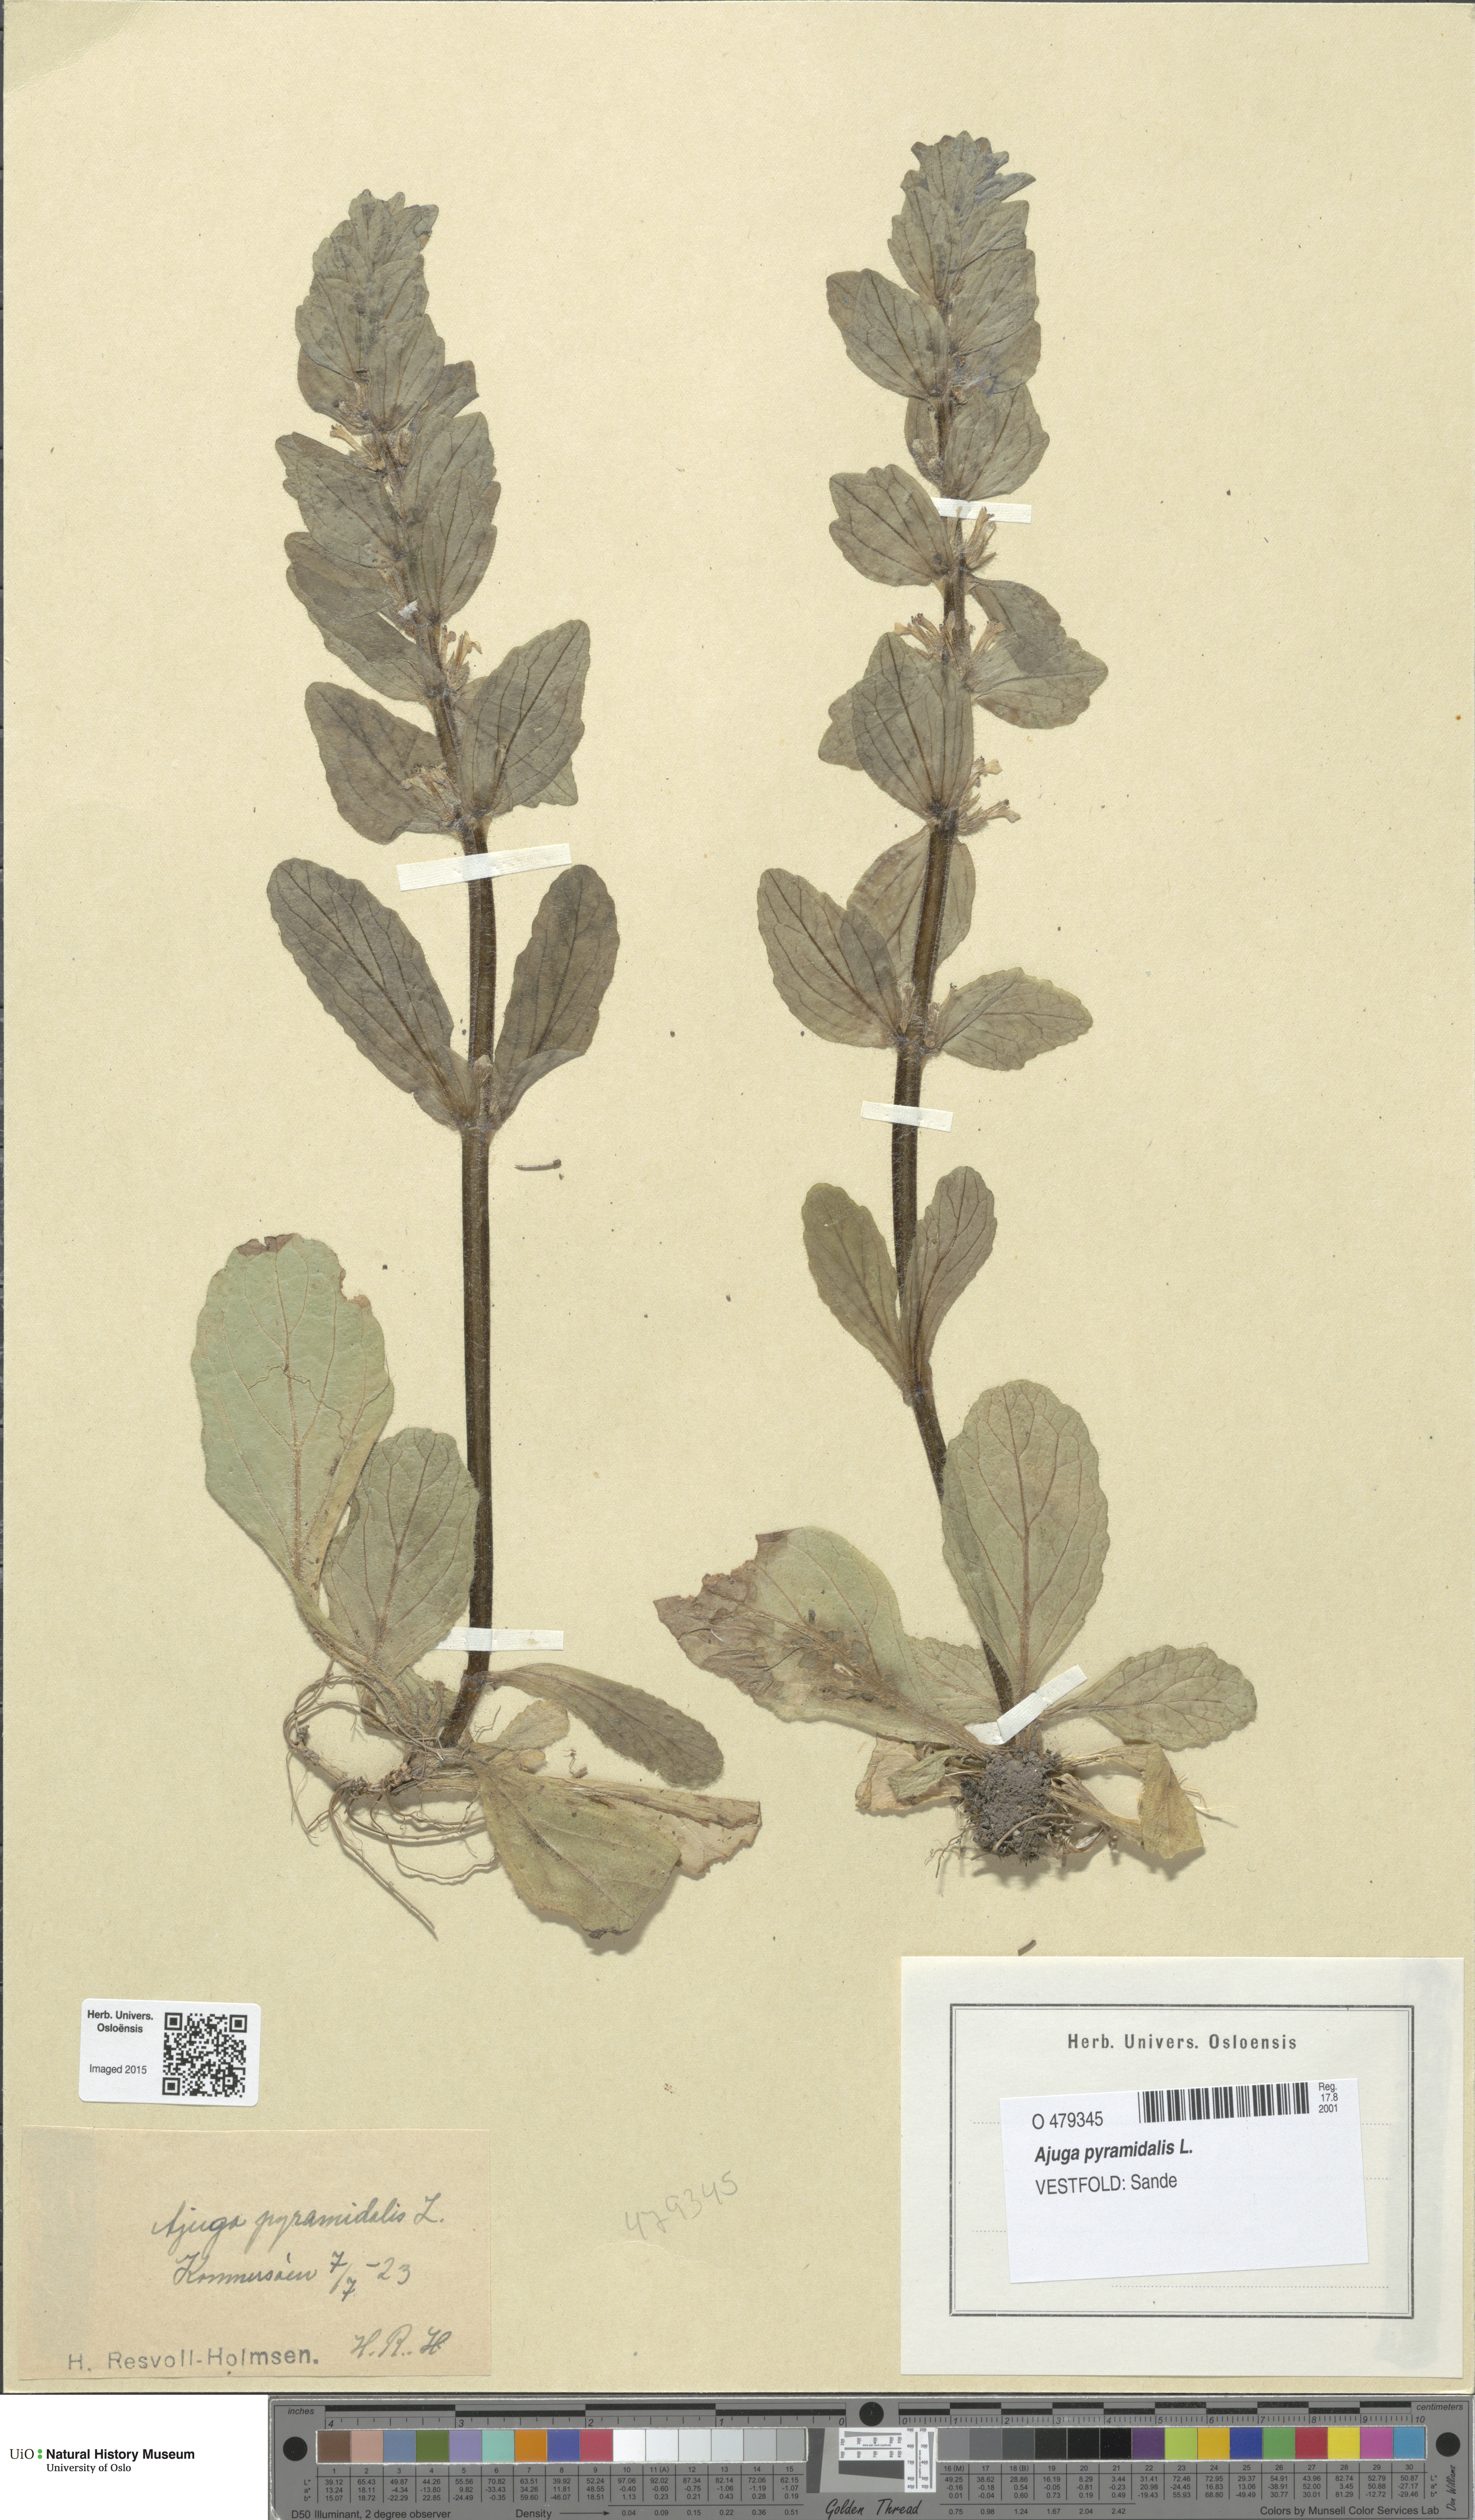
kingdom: Plantae
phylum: Tracheophyta
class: Magnoliopsida
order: Lamiales
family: Lamiaceae
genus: Ajuga
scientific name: Ajuga pyramidalis
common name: Pyramid bugle
